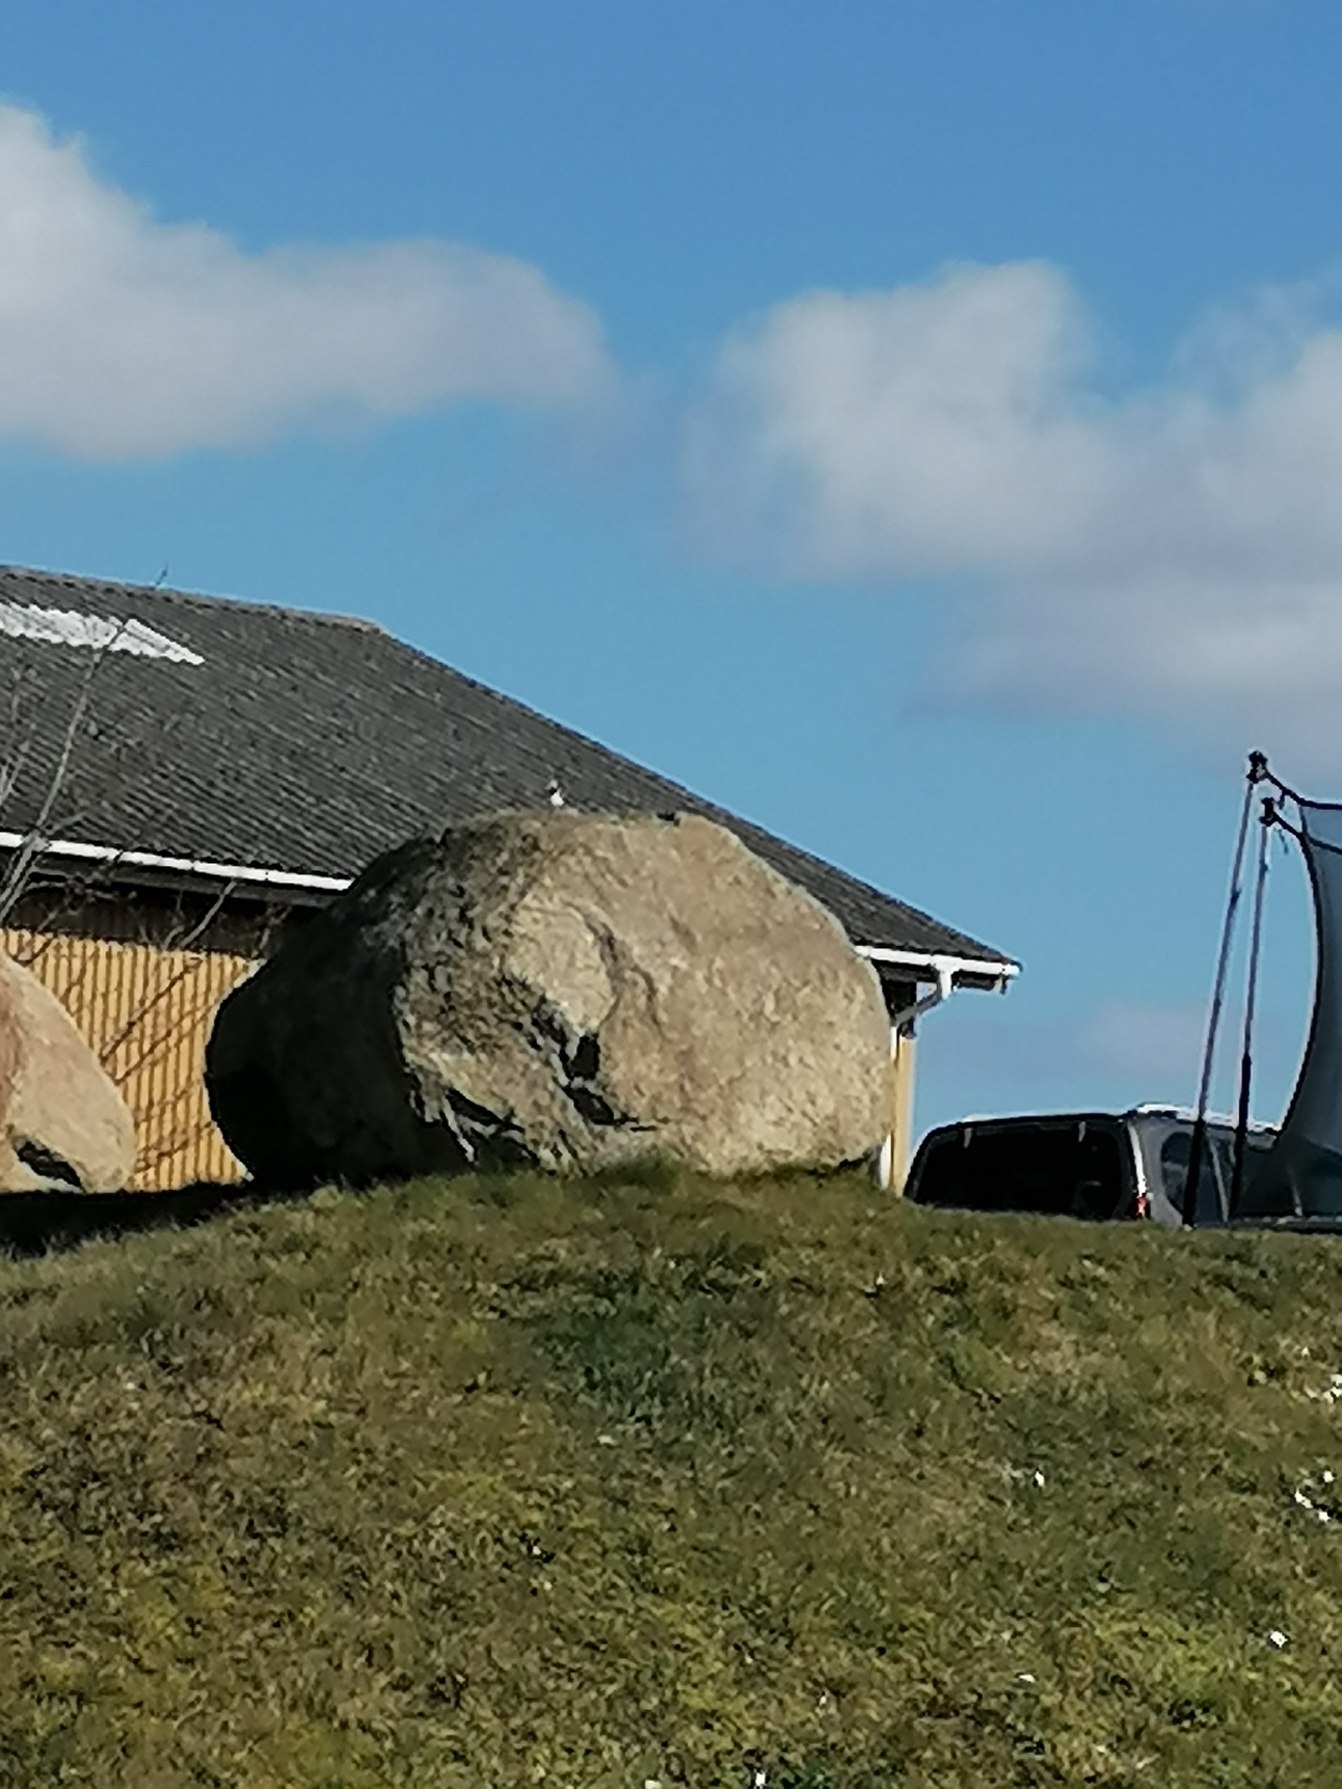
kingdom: Animalia
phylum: Chordata
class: Aves
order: Passeriformes
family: Motacillidae
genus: Motacilla
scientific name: Motacilla alba
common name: Hvid vipstjert
